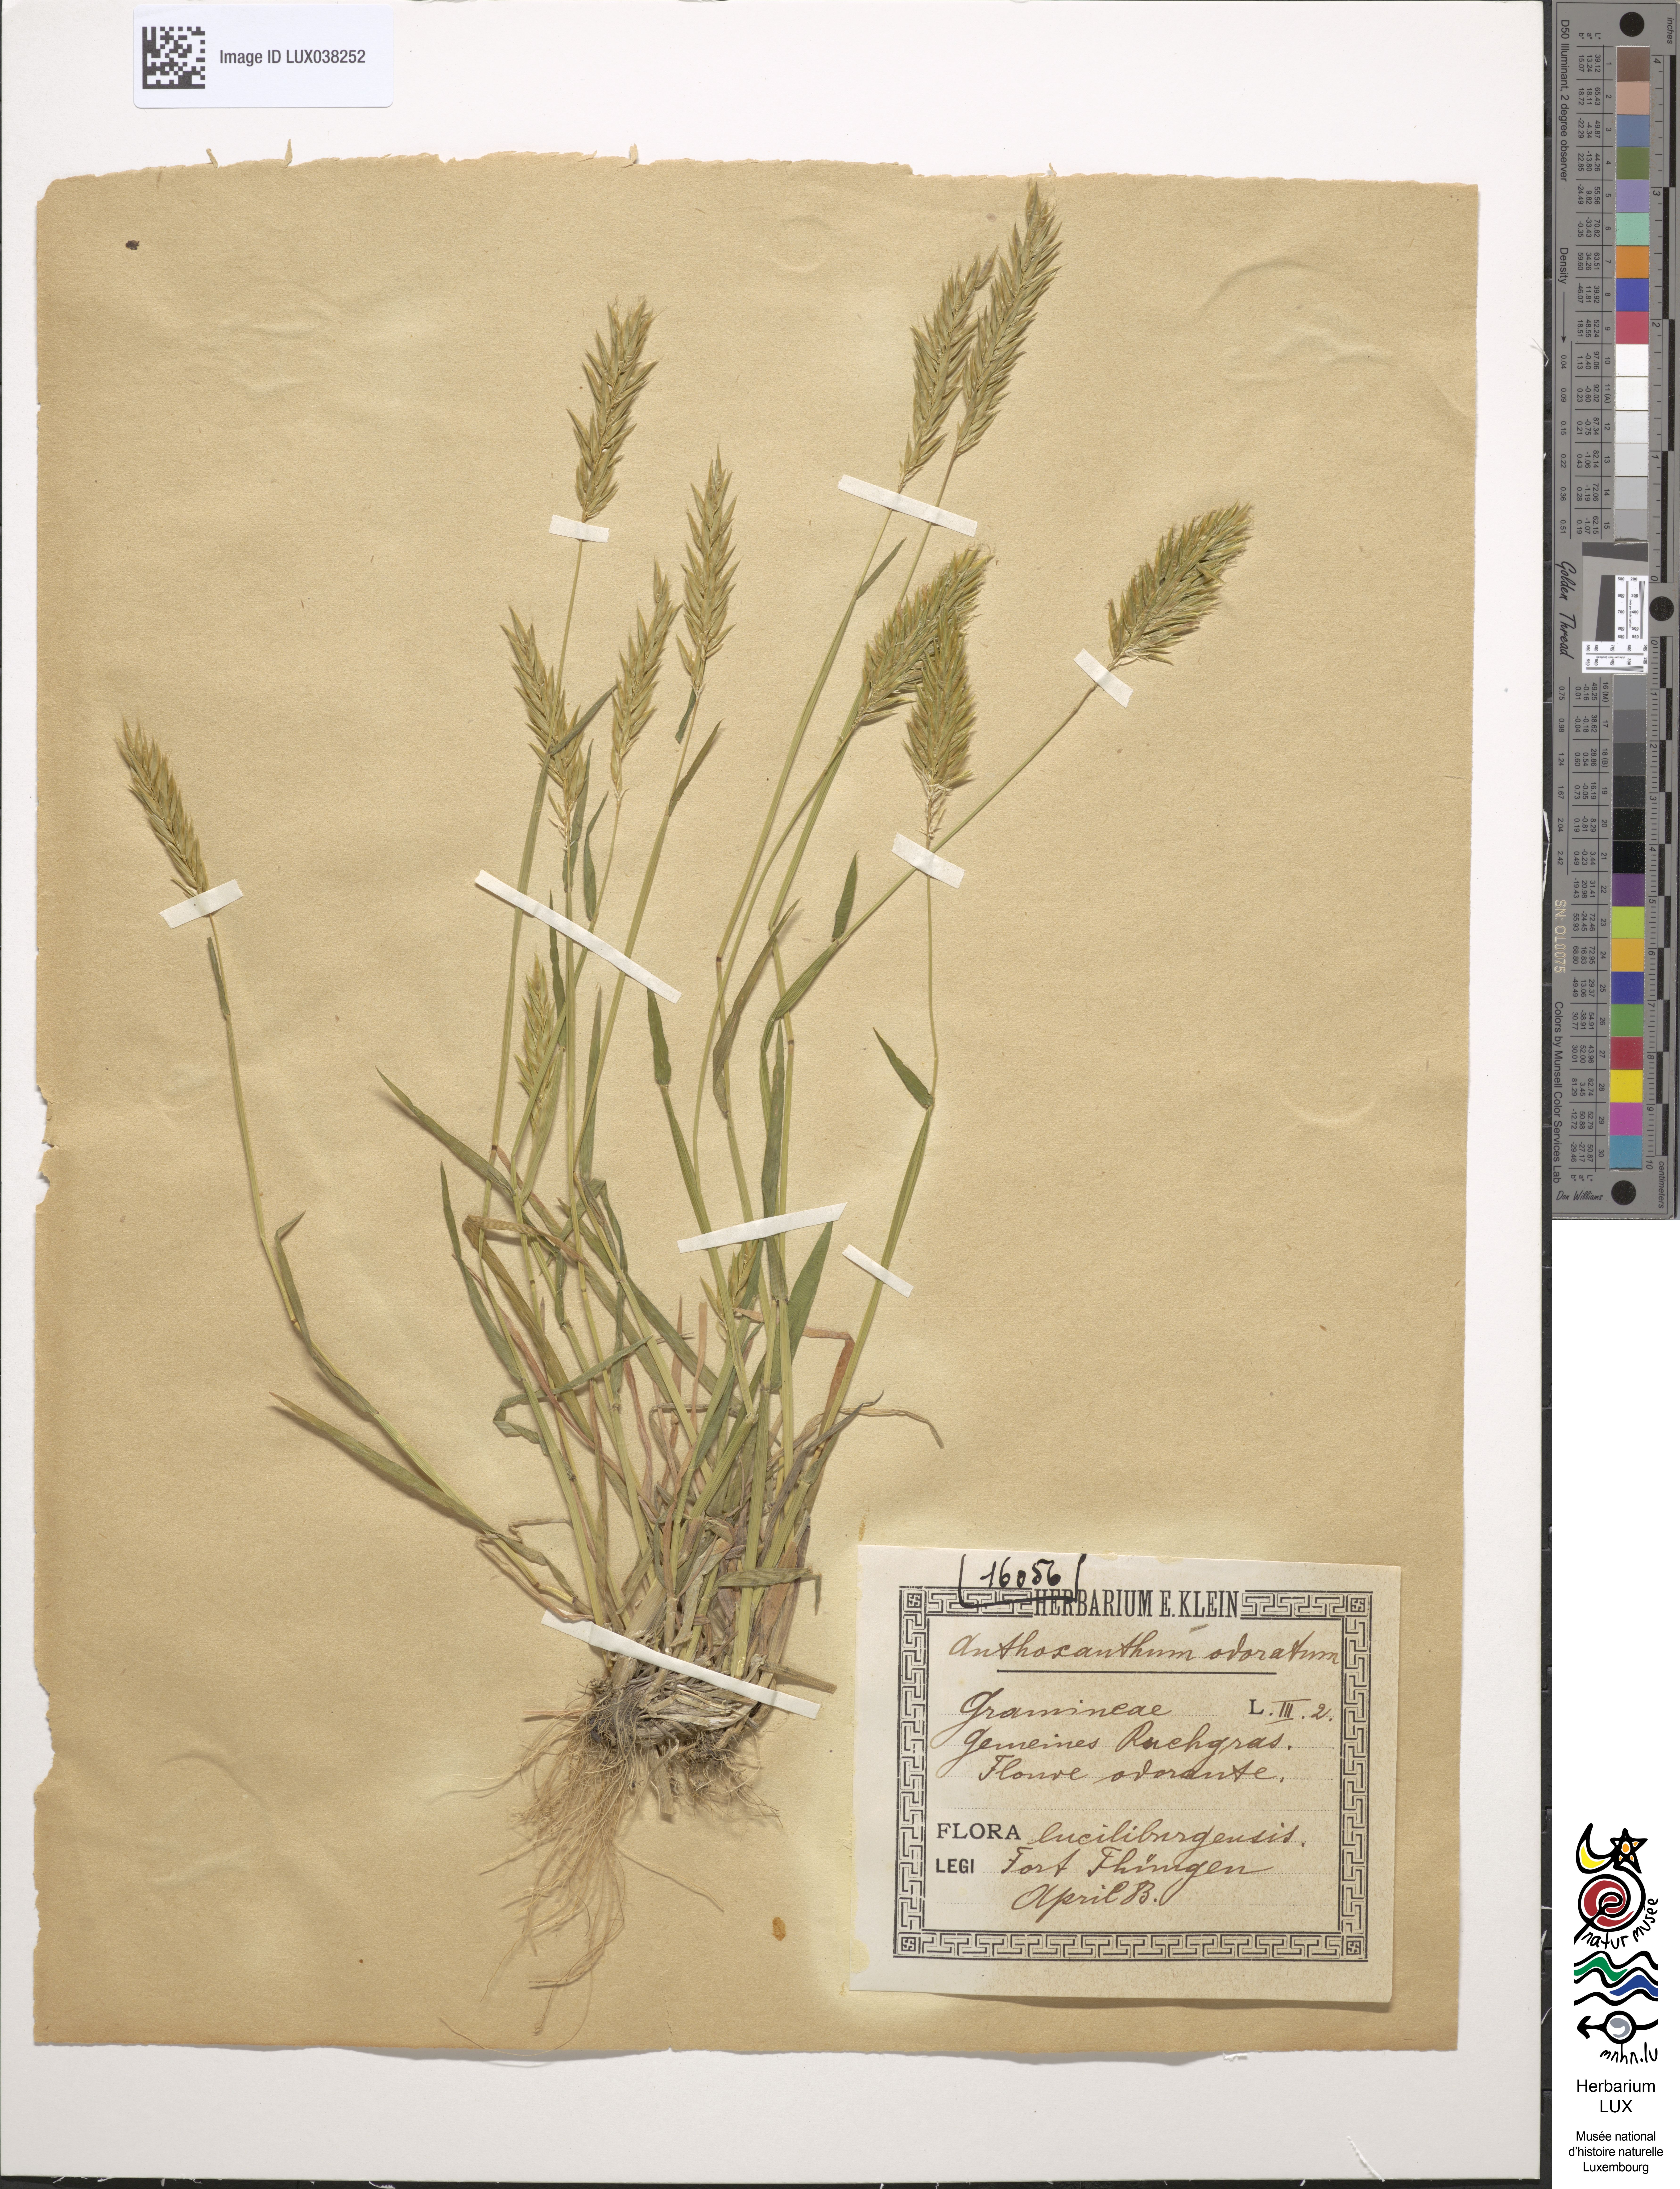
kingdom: Plantae
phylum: Tracheophyta
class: Liliopsida
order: Poales
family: Poaceae
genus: Anthoxanthum
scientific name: Anthoxanthum odoratum
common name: Sweet vernalgrass
